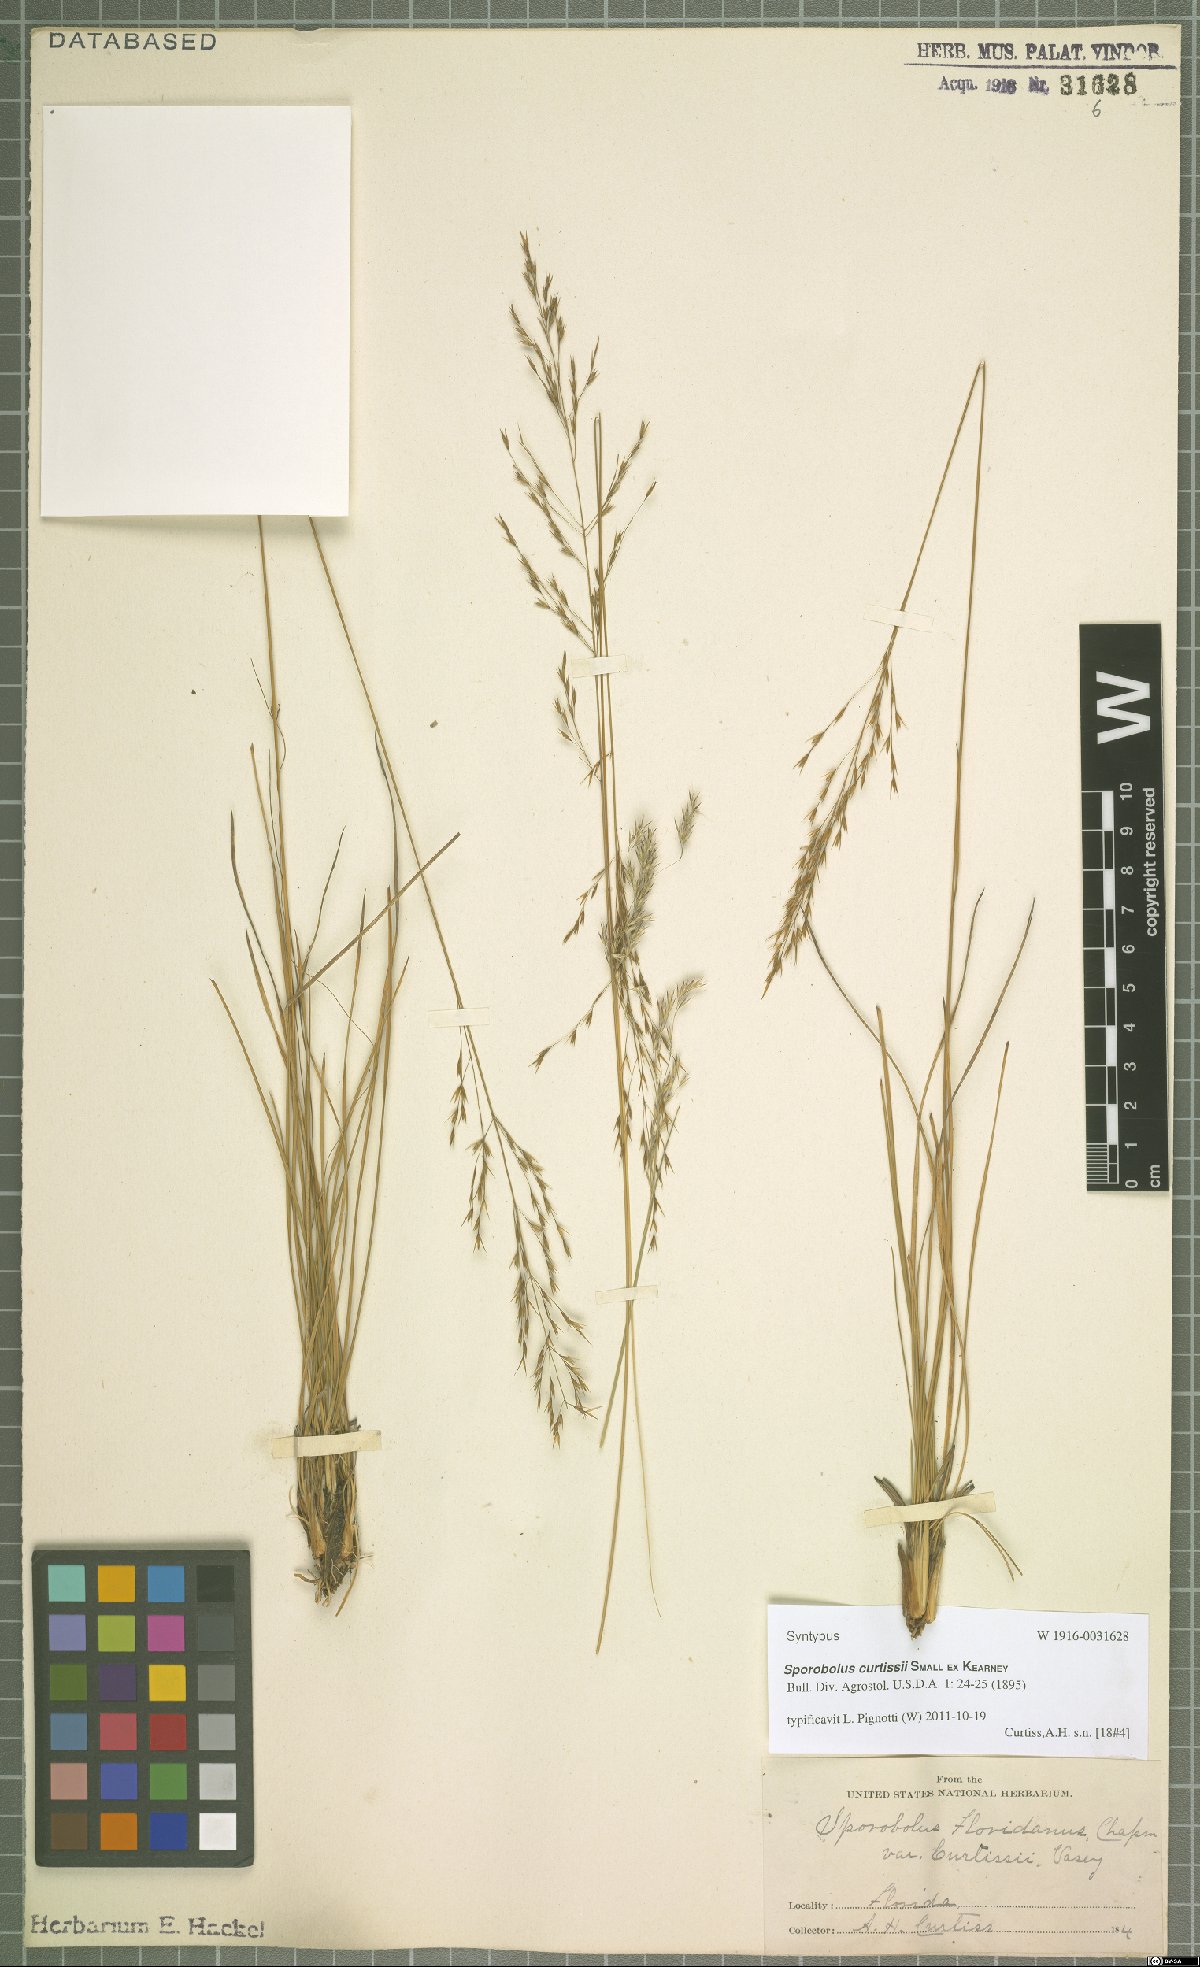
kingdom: Plantae
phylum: Tracheophyta
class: Liliopsida
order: Poales
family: Poaceae
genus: Sporobolus
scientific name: Sporobolus curtissii
